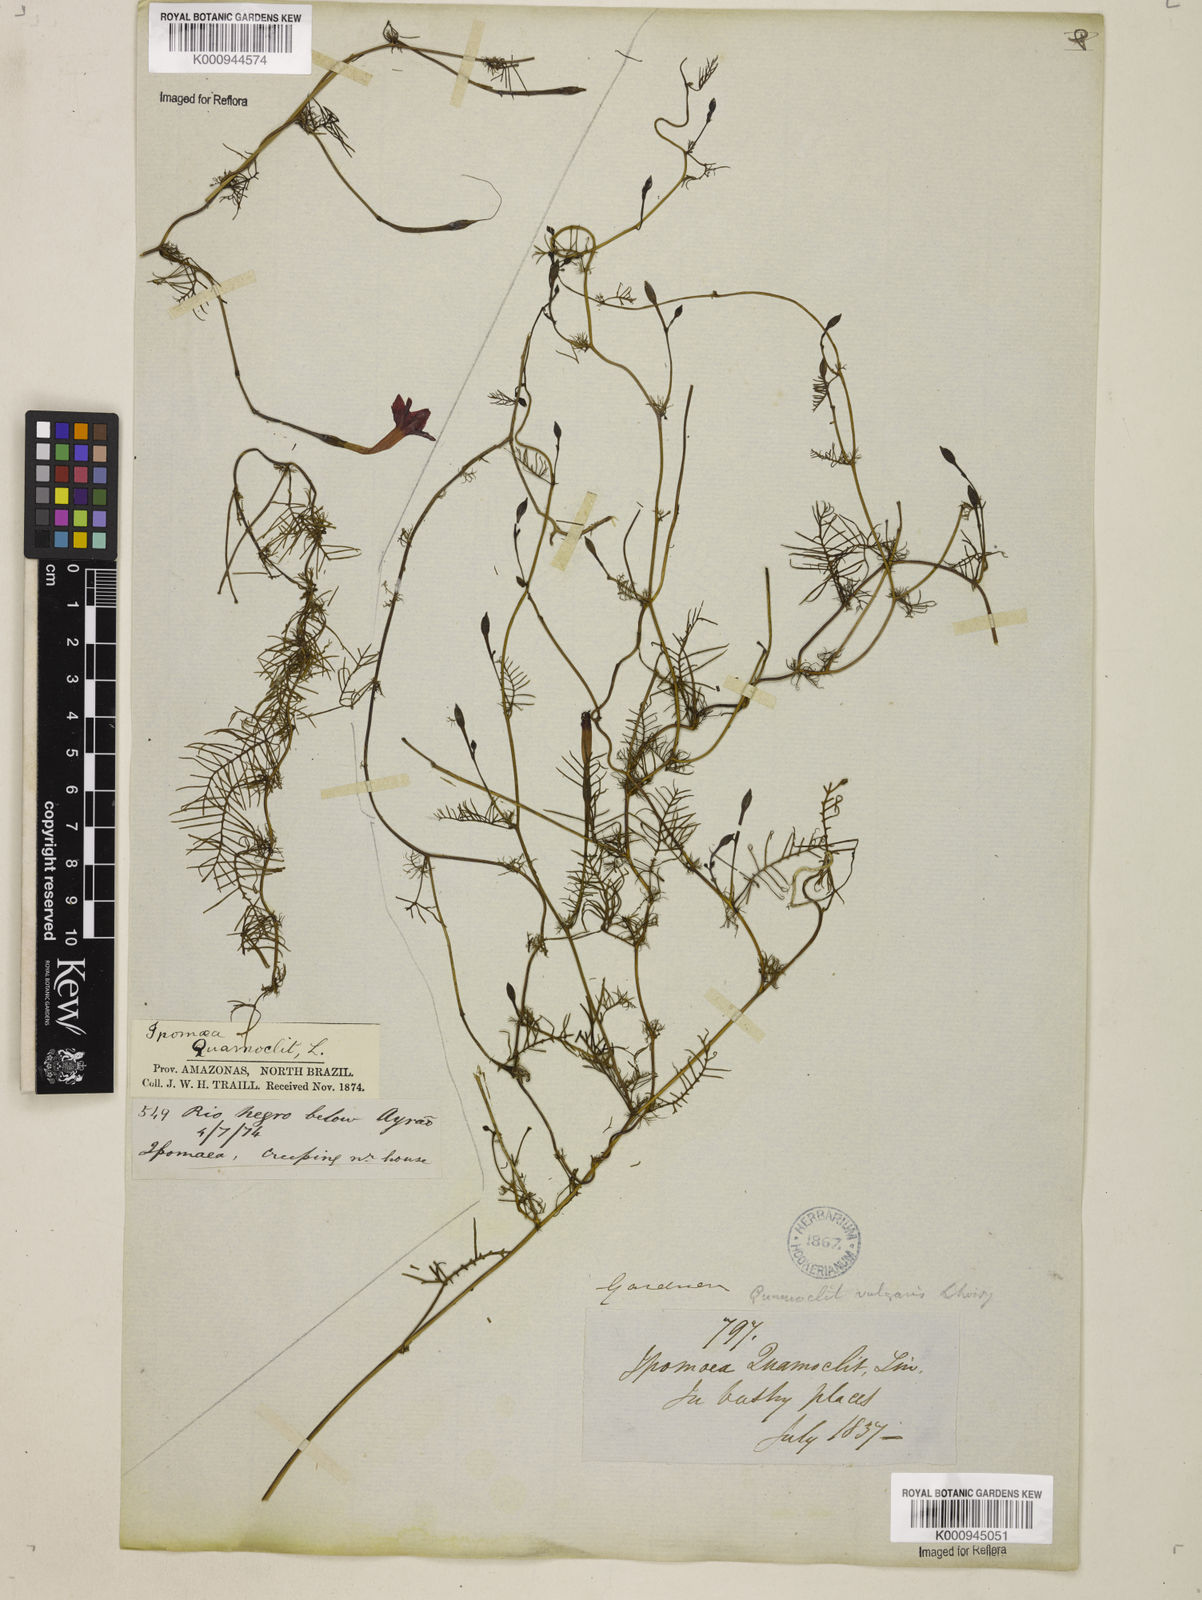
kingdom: Plantae
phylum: Tracheophyta
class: Magnoliopsida
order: Solanales
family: Convolvulaceae
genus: Ipomoea
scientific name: Ipomoea quamoclit
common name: Cypress vine
